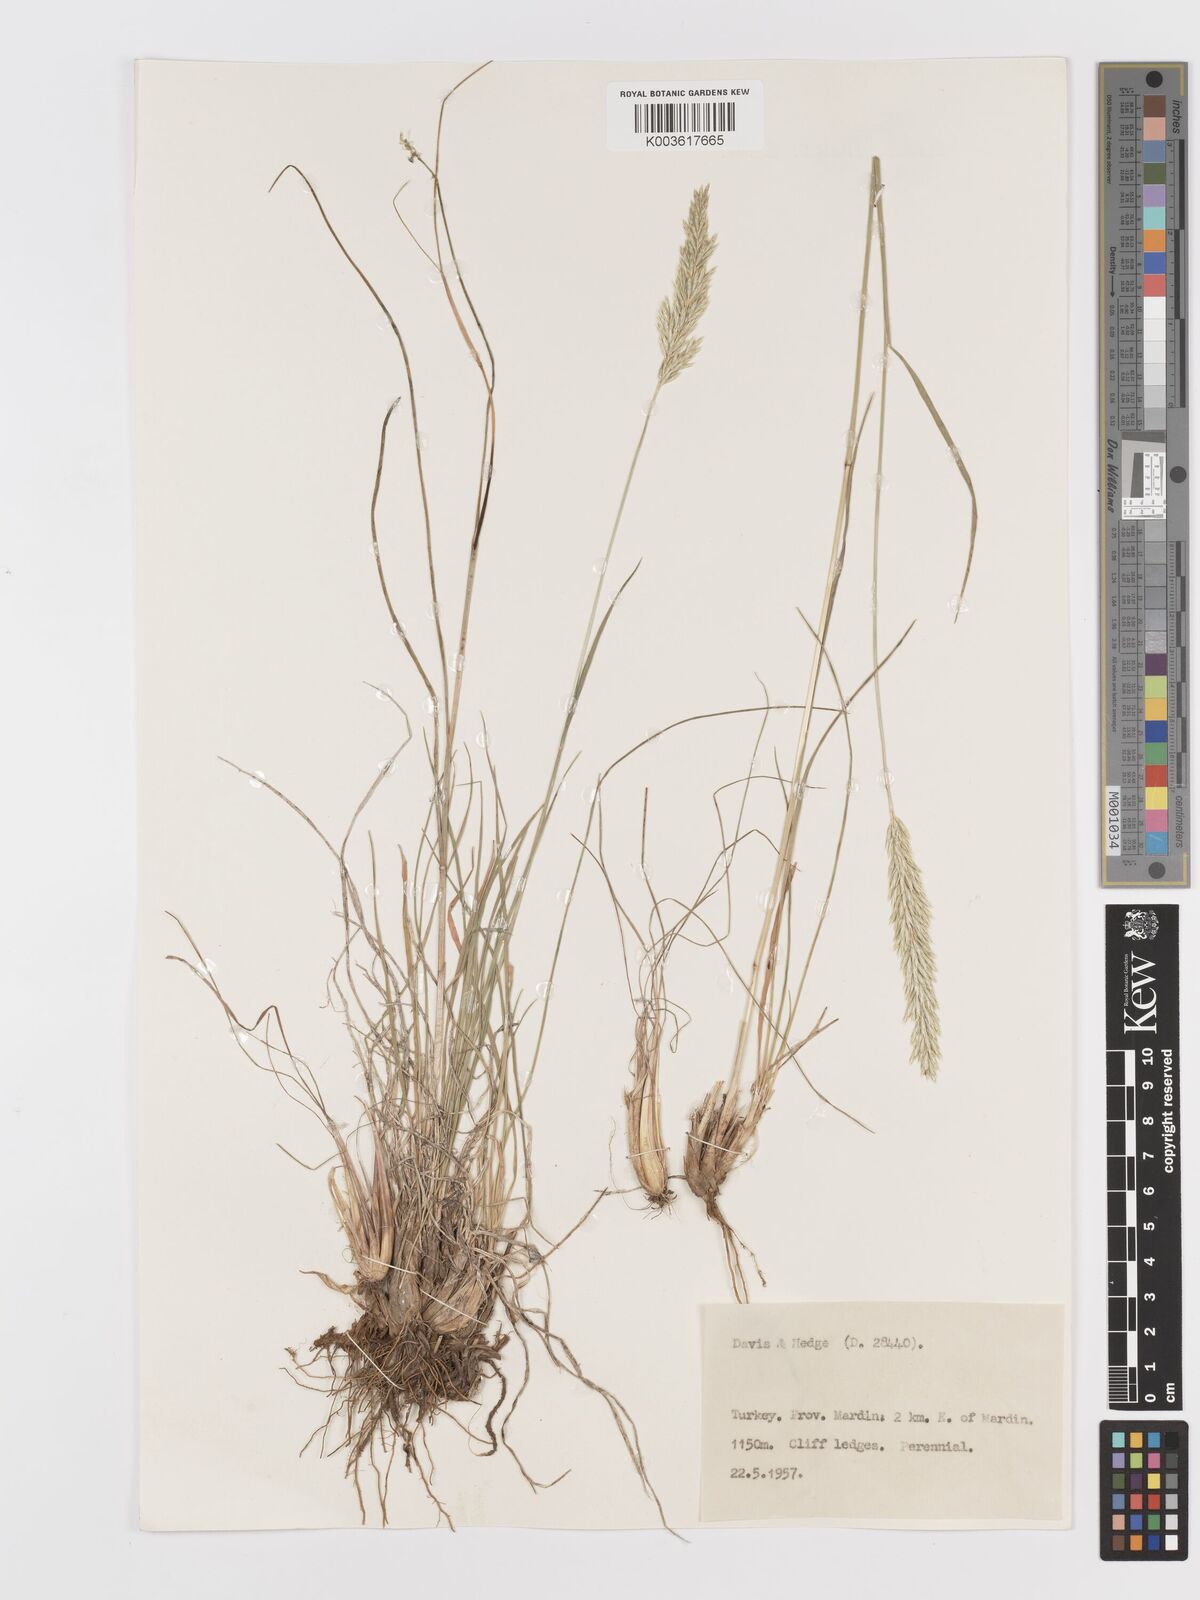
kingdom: Plantae
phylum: Tracheophyta
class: Liliopsida
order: Poales
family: Poaceae
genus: Koeleria
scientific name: Koeleria
